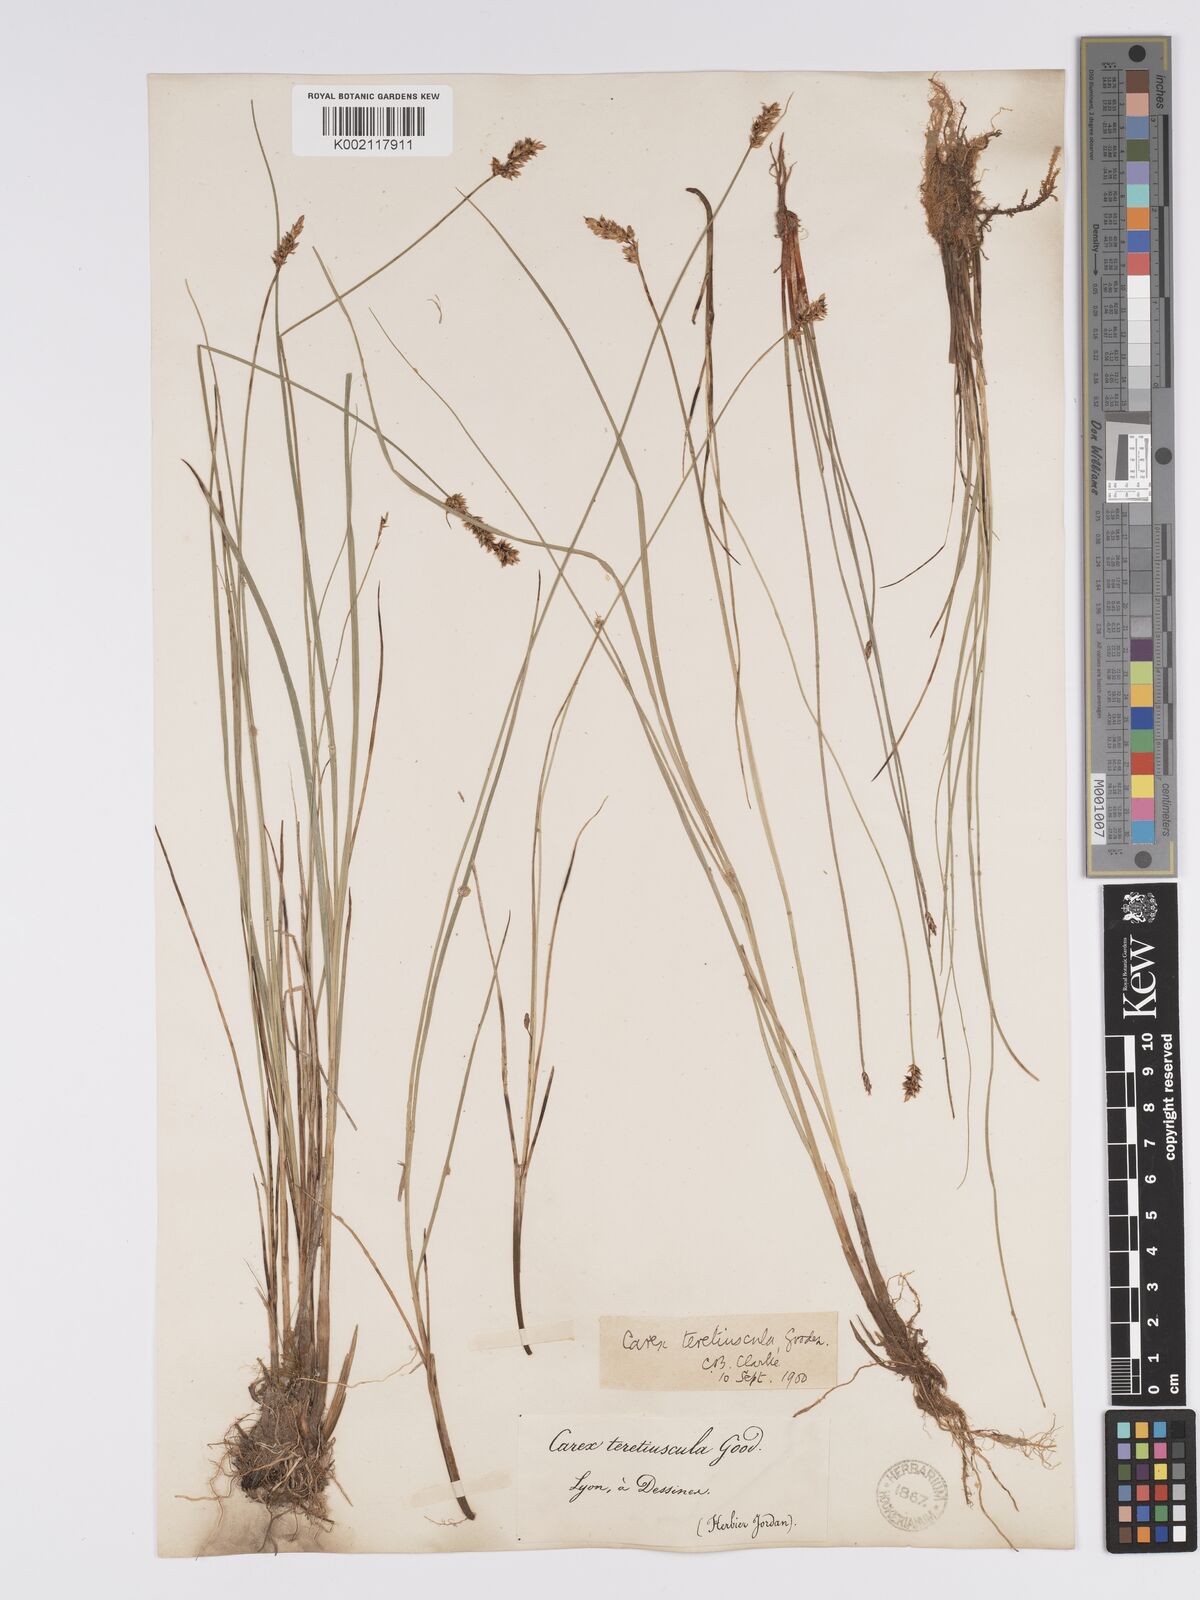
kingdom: Plantae
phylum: Tracheophyta
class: Liliopsida
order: Poales
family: Cyperaceae
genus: Carex
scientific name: Carex diandra
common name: Lesser tussock-sedge
